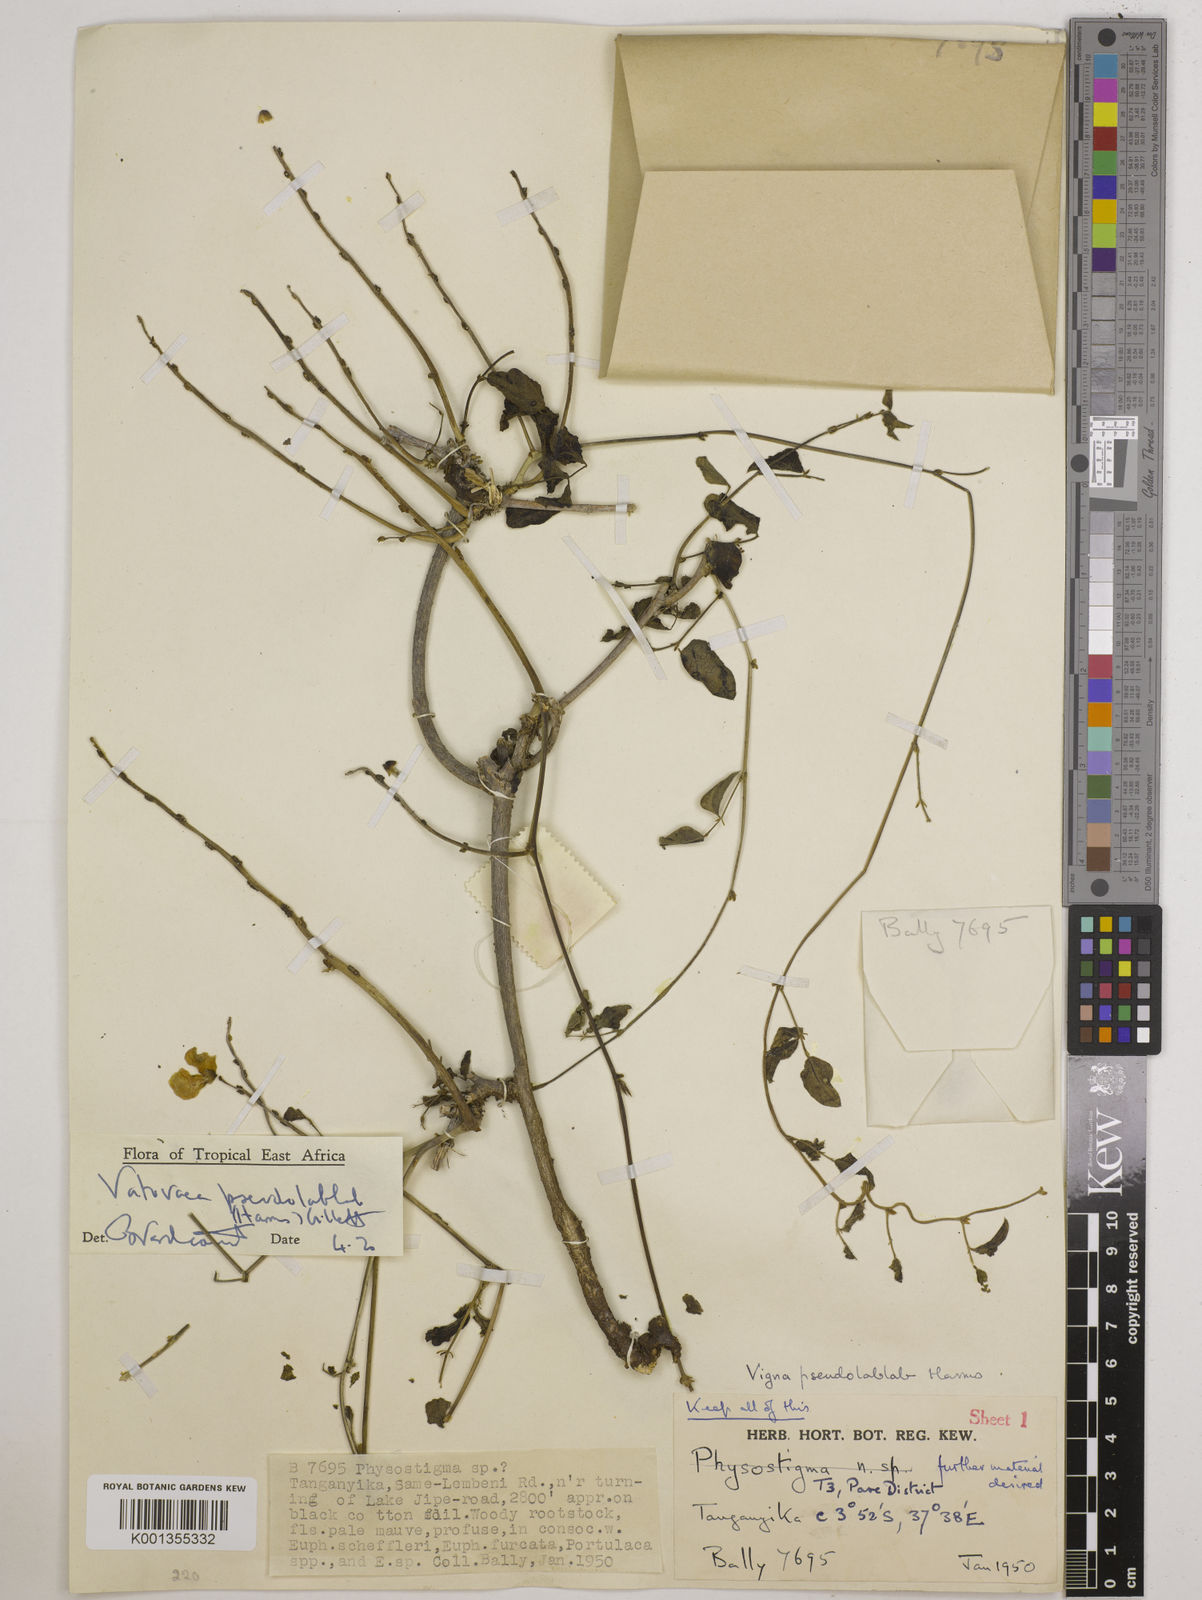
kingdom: Plantae
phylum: Tracheophyta
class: Magnoliopsida
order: Fabales
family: Fabaceae
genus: Vatovaea
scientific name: Vatovaea pseudolablab
